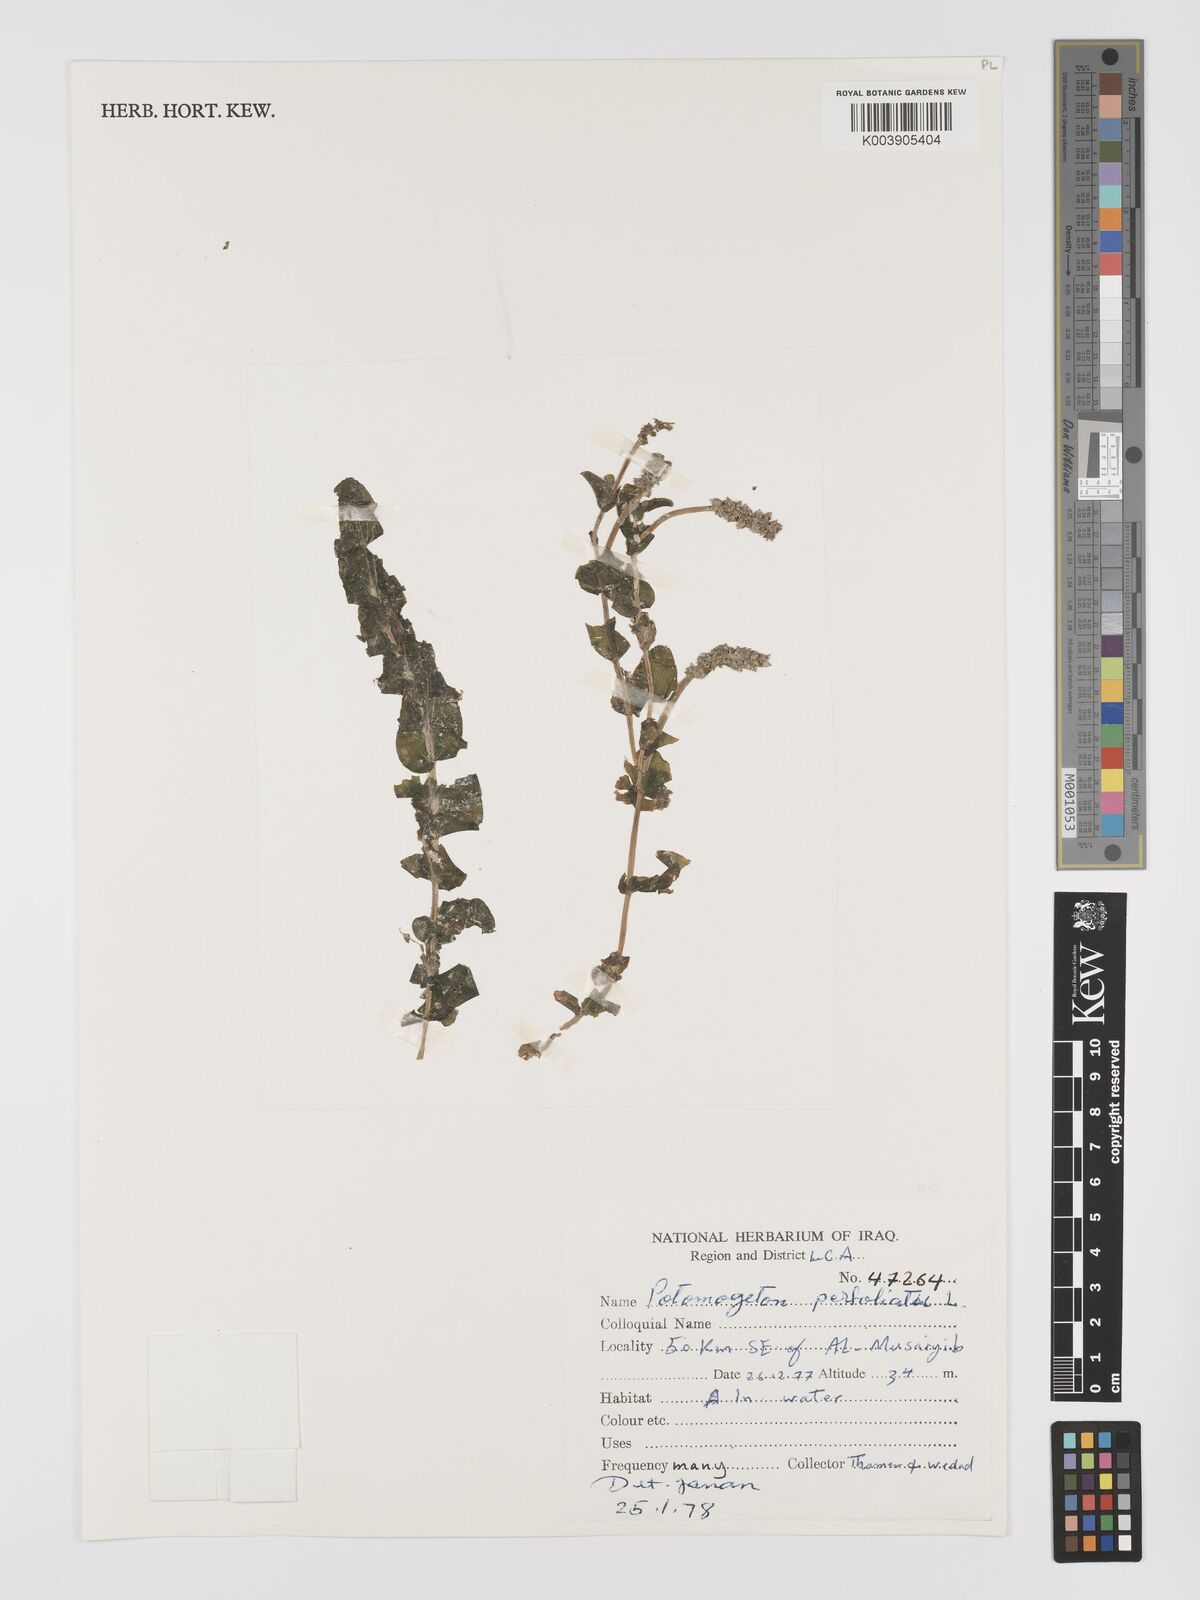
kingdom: Plantae
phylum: Tracheophyta
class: Liliopsida
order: Alismatales
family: Potamogetonaceae
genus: Potamogeton
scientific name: Potamogeton perfoliatus
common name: Perfoliate pondweed
